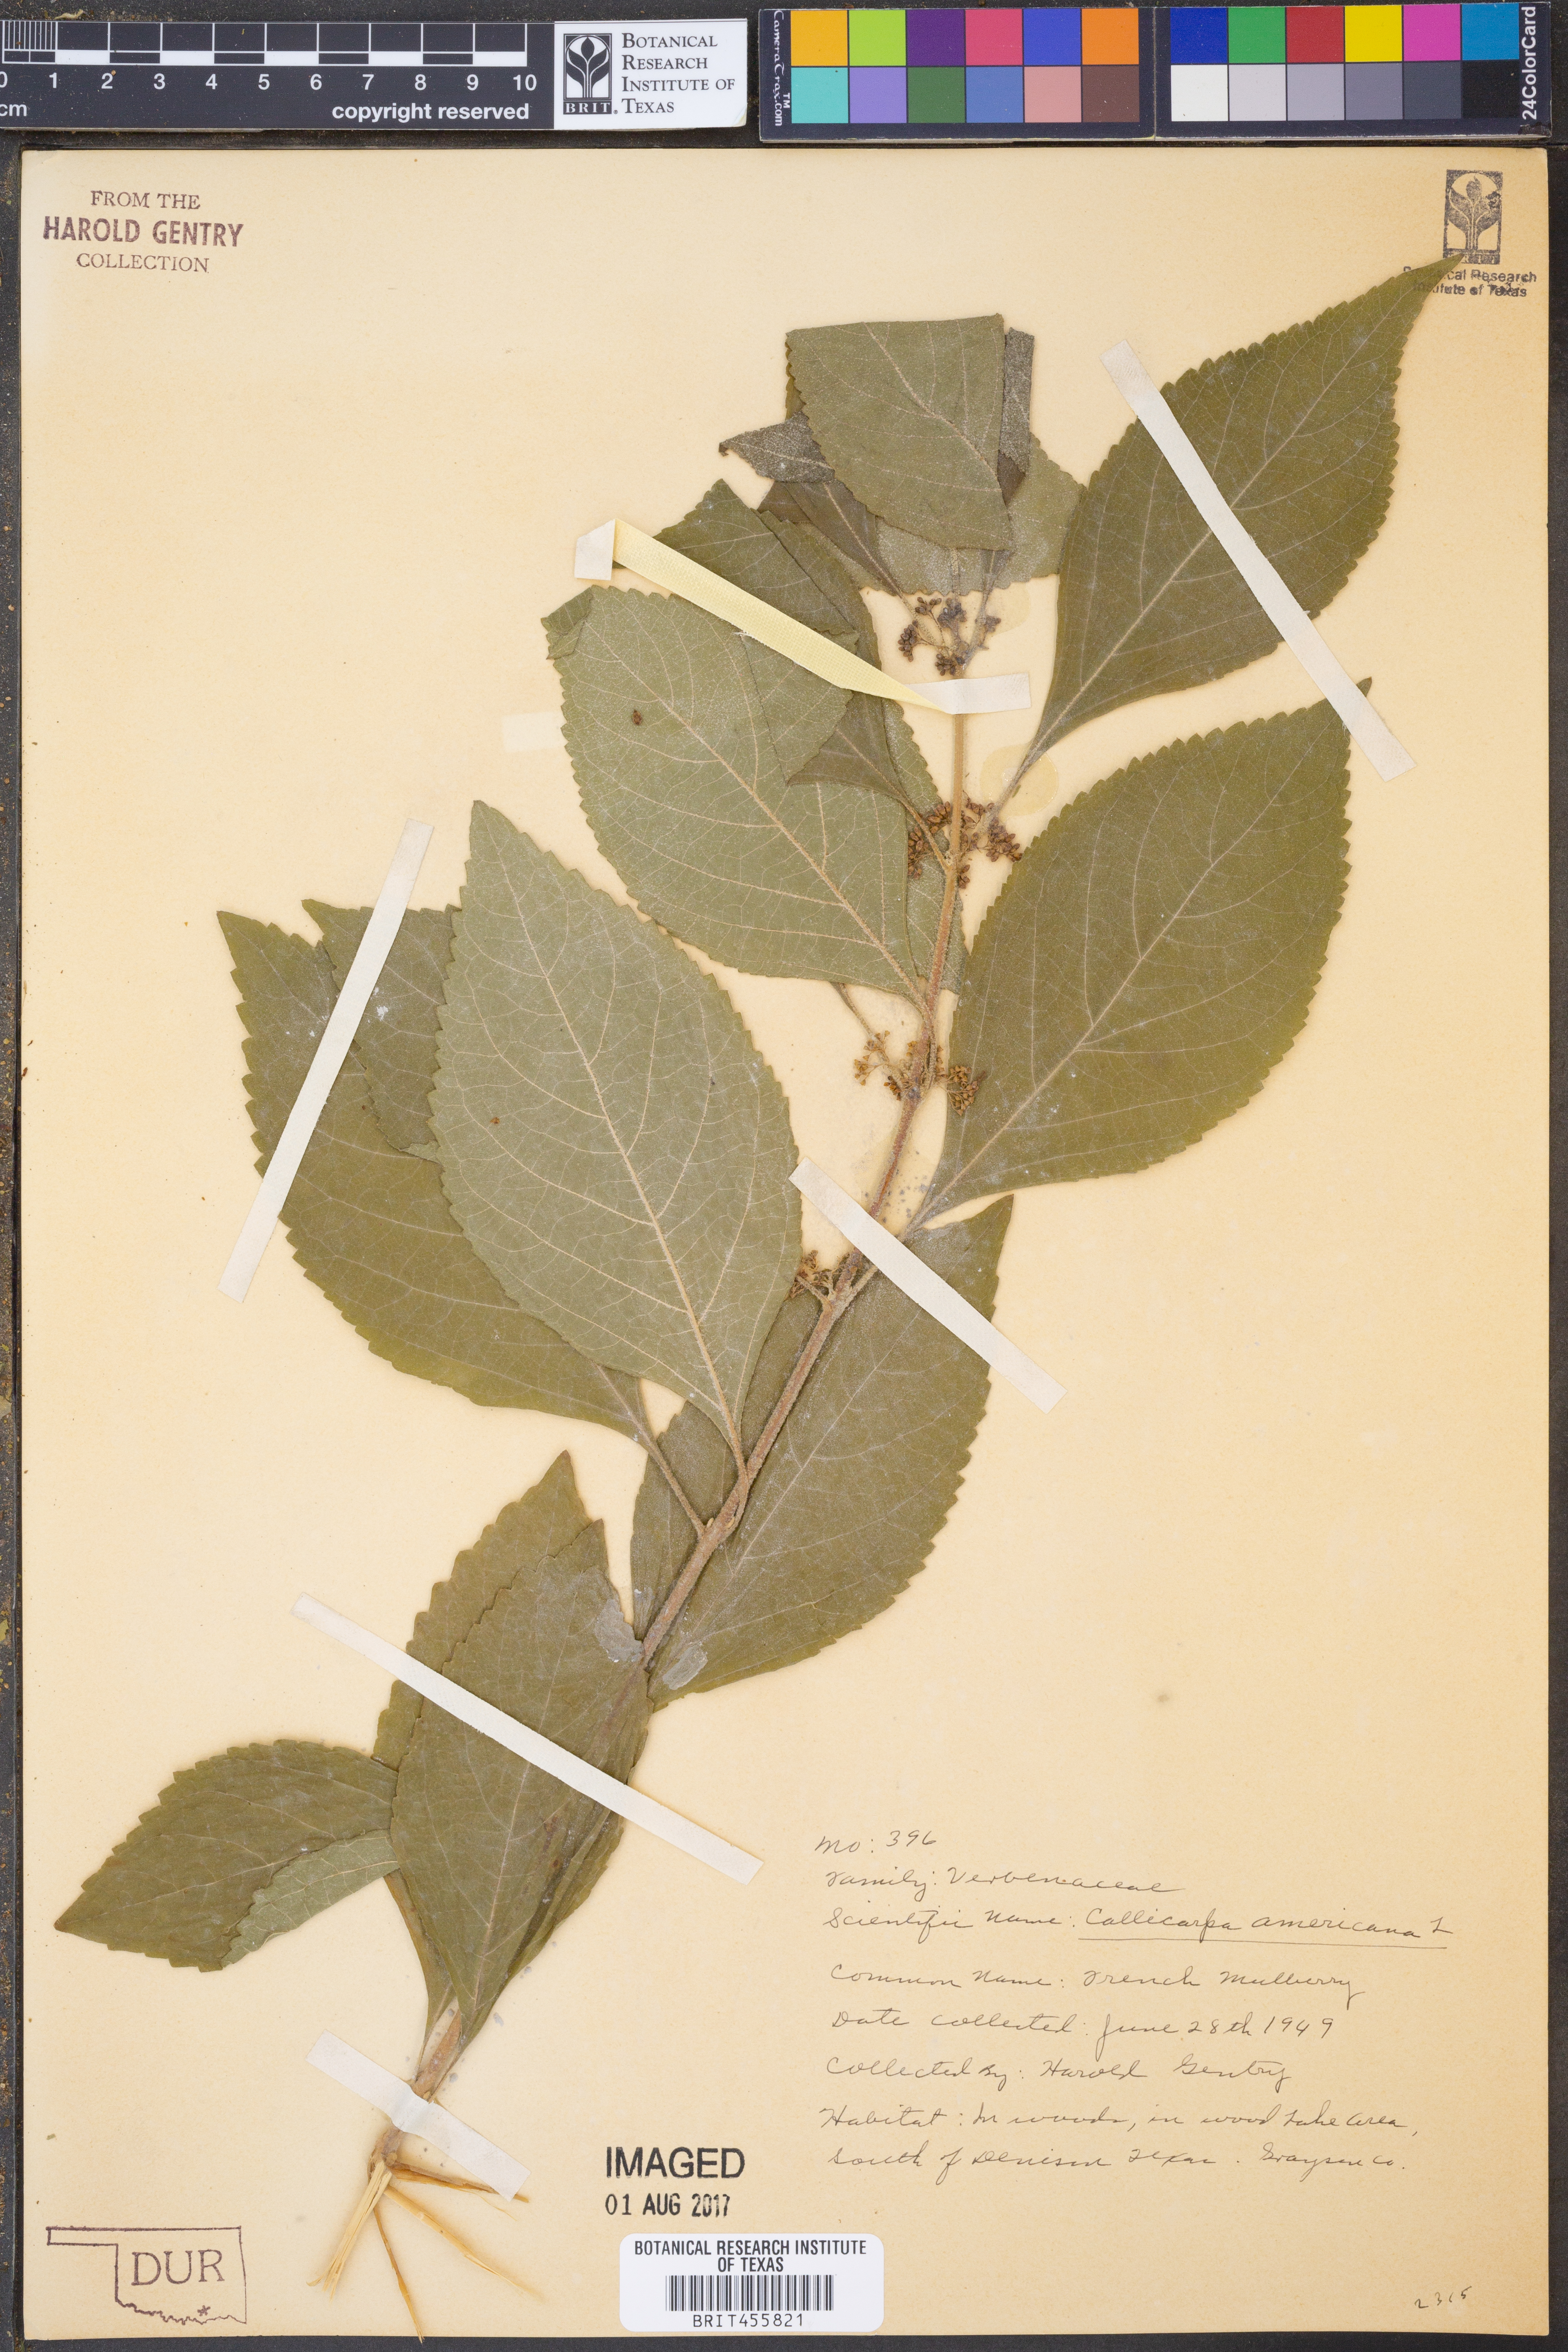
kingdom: Plantae
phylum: Tracheophyta
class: Magnoliopsida
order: Lamiales
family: Lamiaceae
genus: Callicarpa
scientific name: Callicarpa americana
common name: American beautyberry
